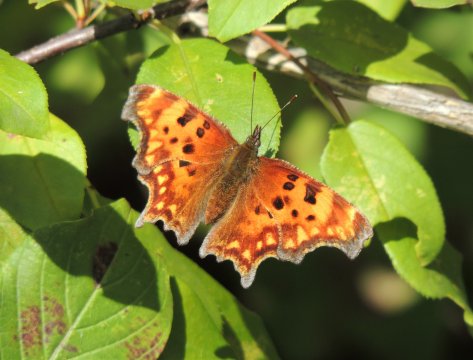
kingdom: Animalia
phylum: Arthropoda
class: Insecta
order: Lepidoptera
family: Nymphalidae
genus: Polygonia
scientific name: Polygonia gracilis
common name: Hoary Comma
